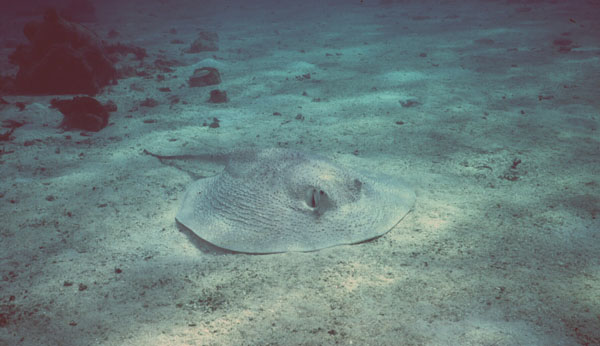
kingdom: Animalia
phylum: Chordata
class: Elasmobranchii
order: Myliobatiformes
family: Dasyatidae
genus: Urogymnus
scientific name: Urogymnus asperrimus
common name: Porcupine ray
